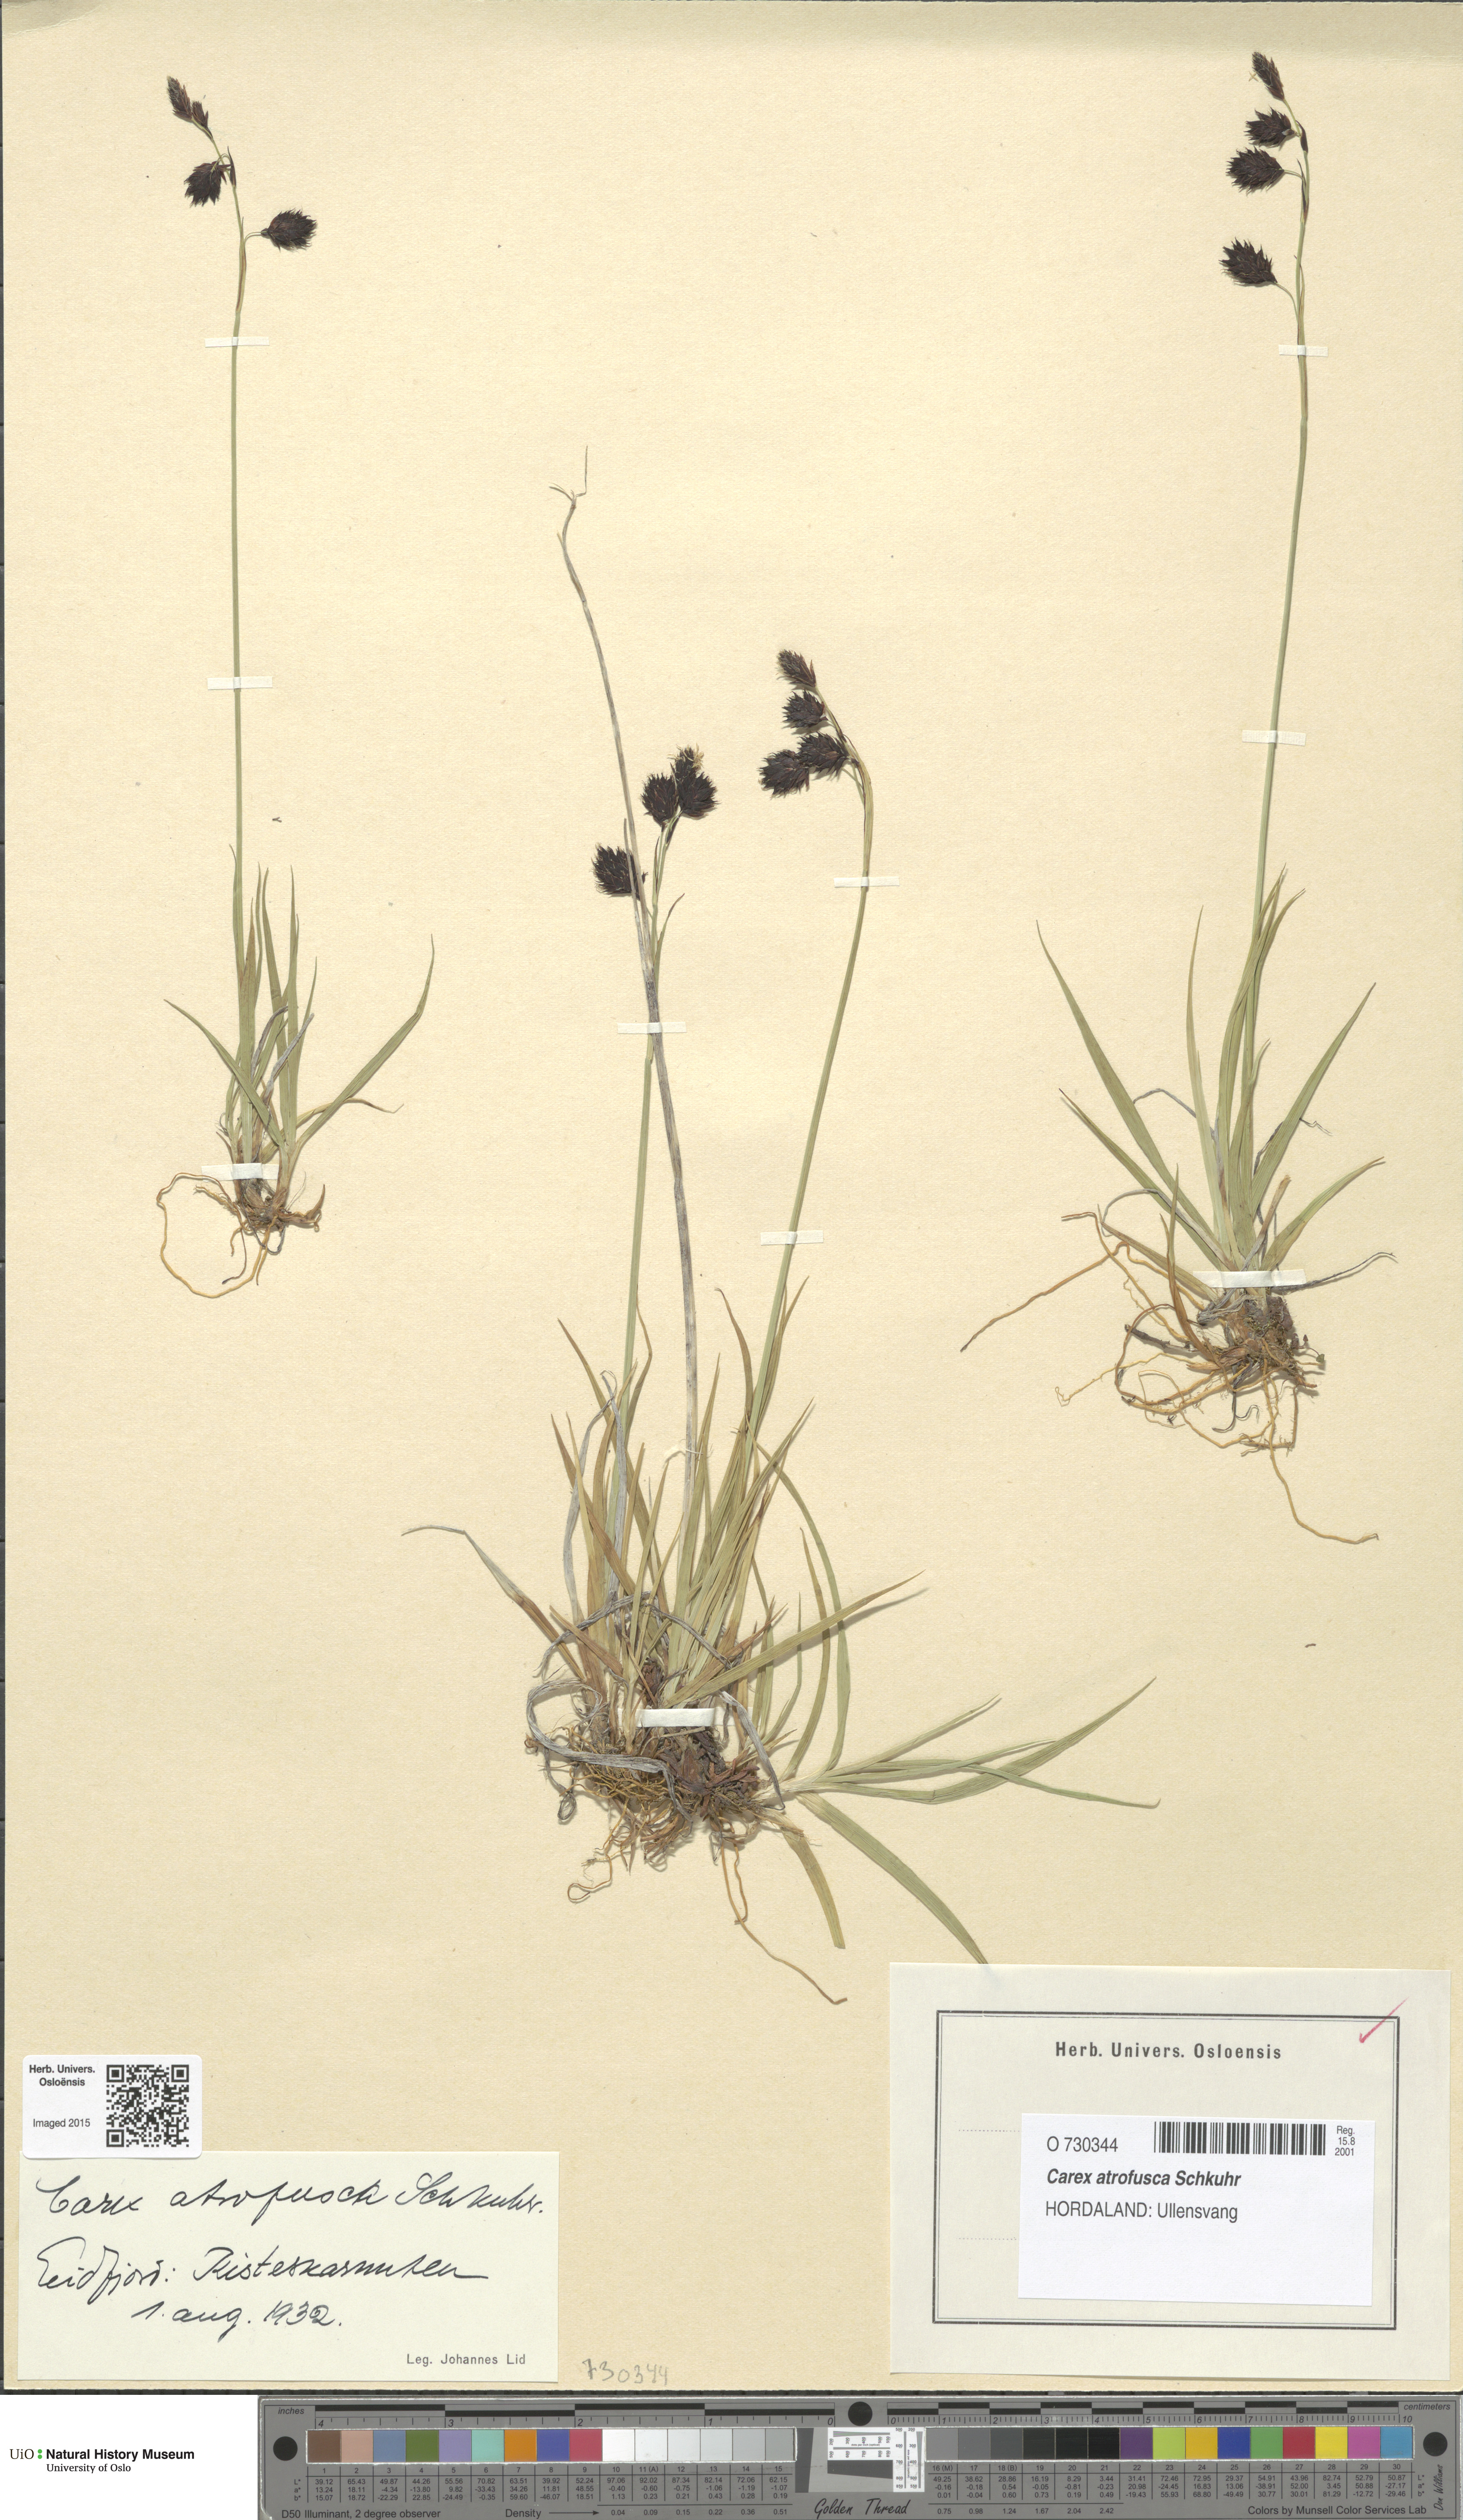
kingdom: Plantae
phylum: Tracheophyta
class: Liliopsida
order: Poales
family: Cyperaceae
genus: Carex
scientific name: Carex atrofusca
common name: Scorched alpine-sedge
